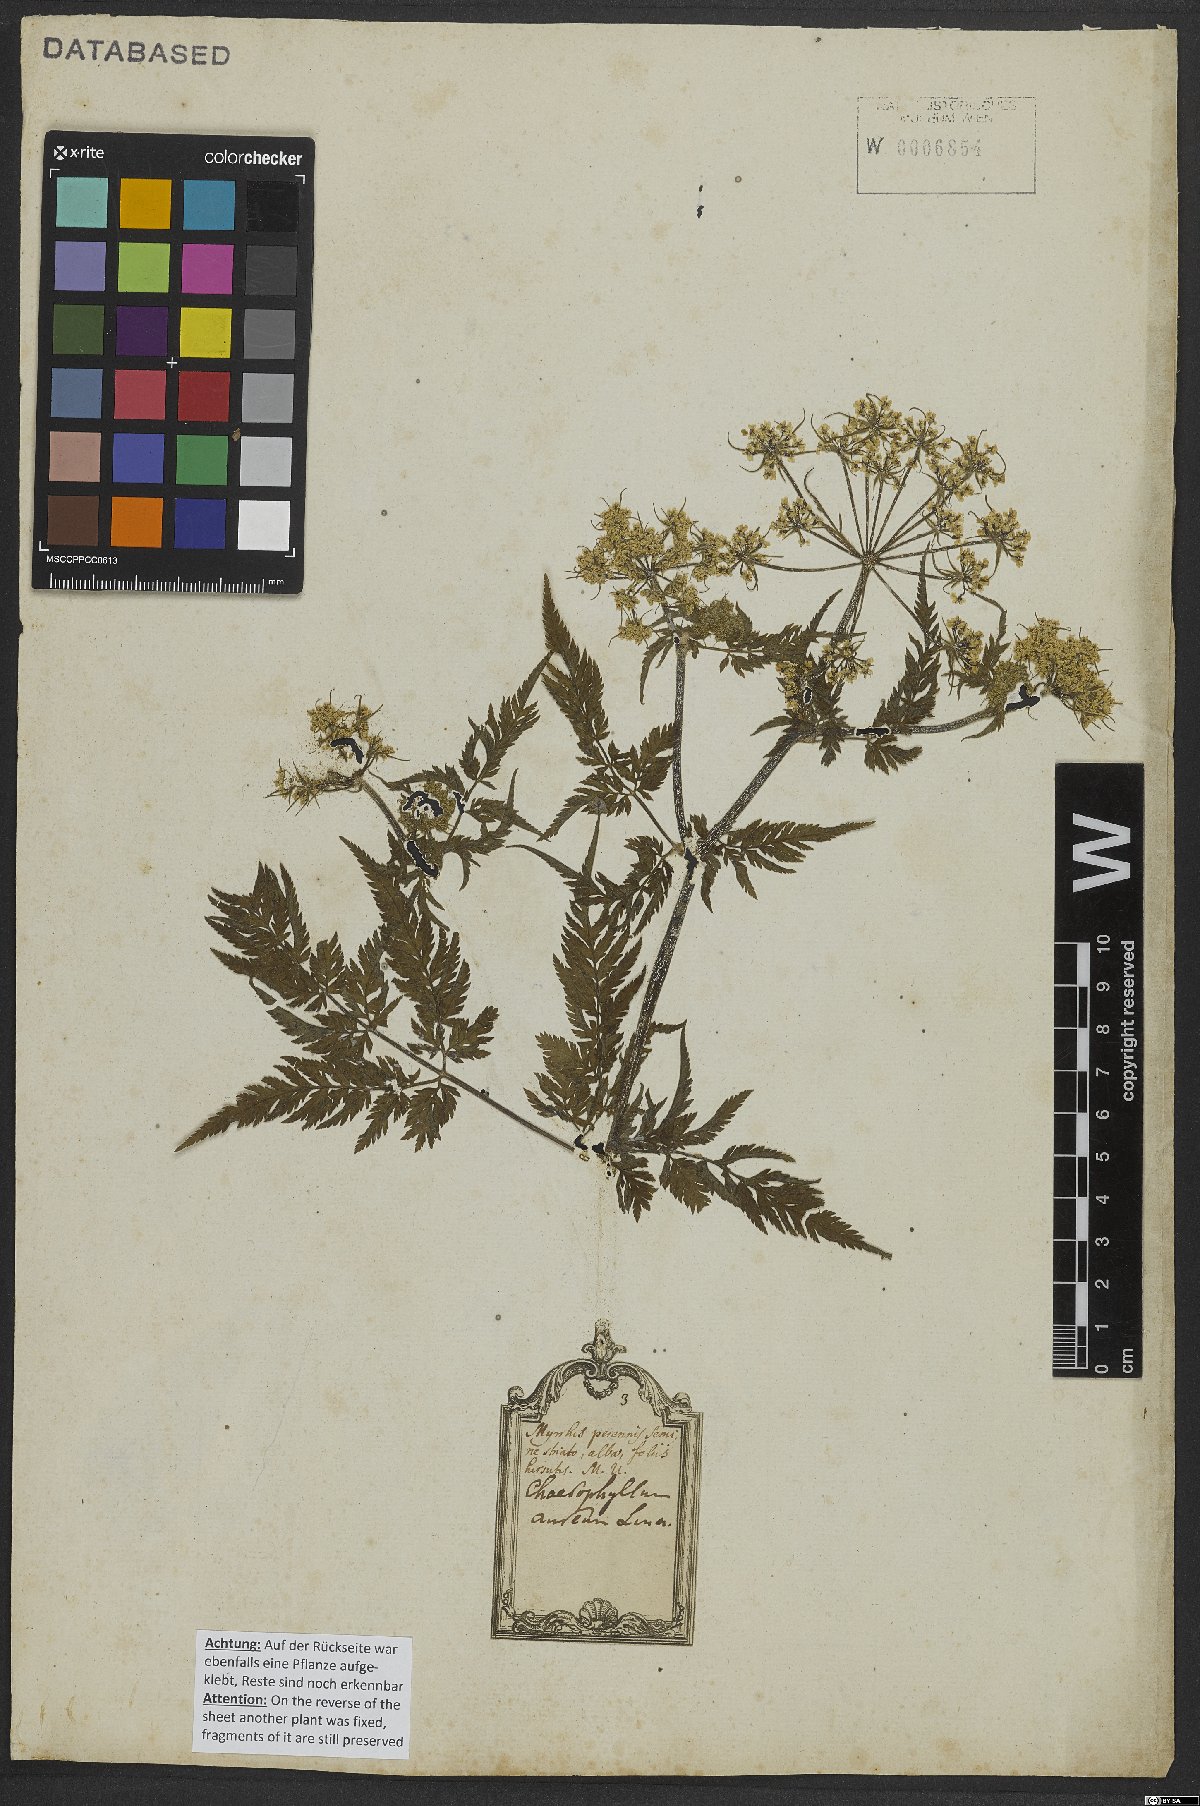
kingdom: Plantae
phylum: Tracheophyta
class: Magnoliopsida
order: Apiales
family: Apiaceae
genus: Chaerophyllum
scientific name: Chaerophyllum aureum
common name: Golden chervil
